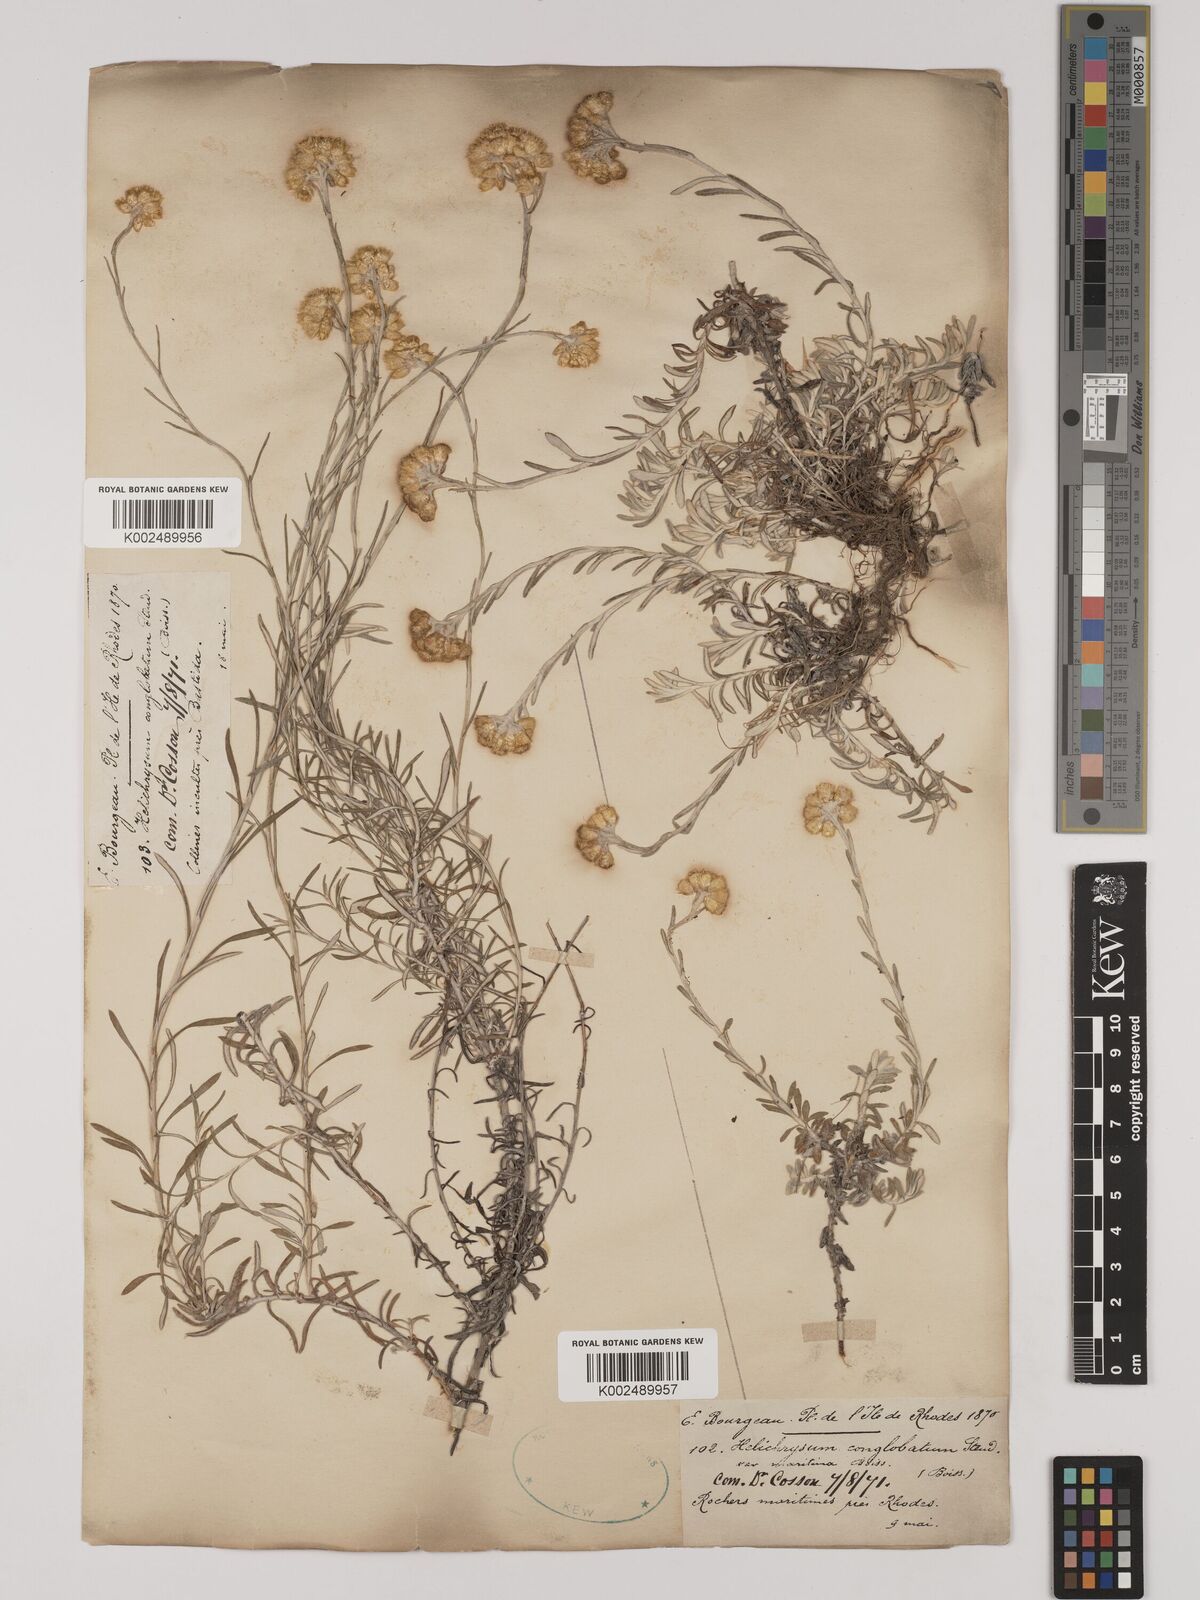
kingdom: Plantae
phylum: Tracheophyta
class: Magnoliopsida
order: Asterales
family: Asteraceae
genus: Helichrysum
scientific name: Helichrysum italicum
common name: Curryplant
